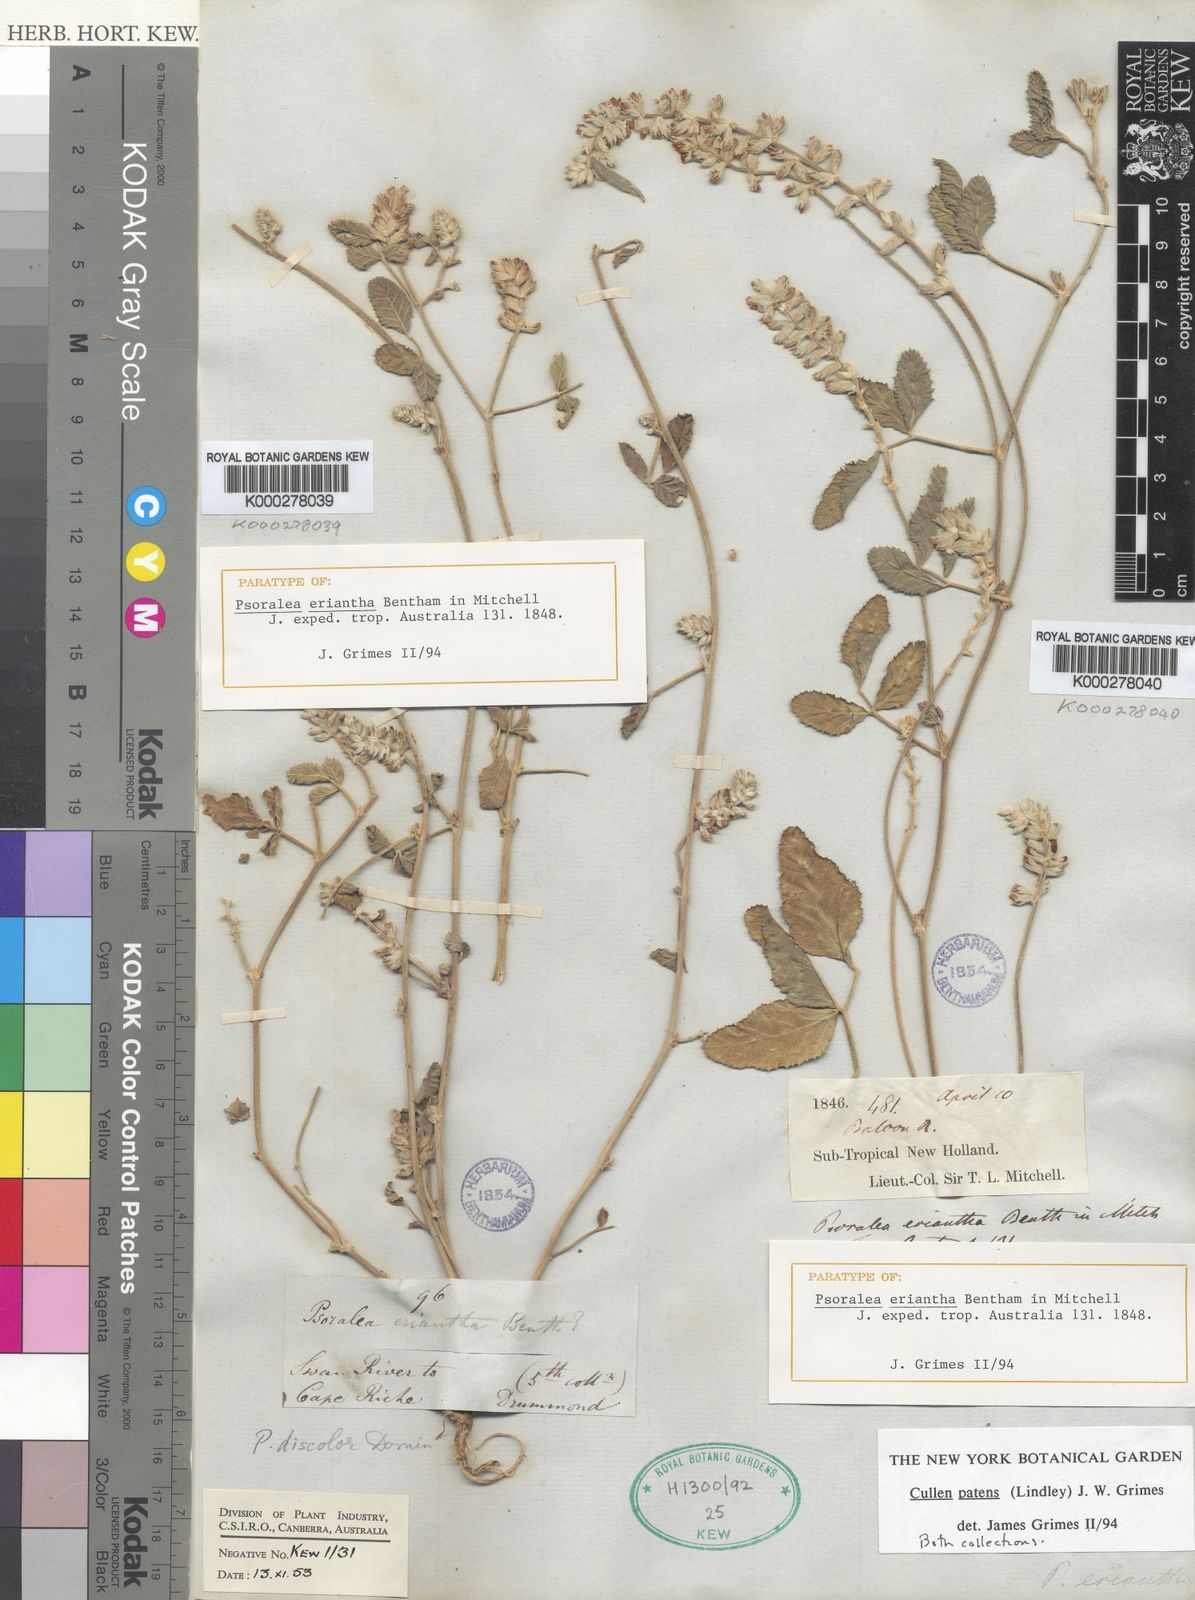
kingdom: Plantae
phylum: Tracheophyta
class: Magnoliopsida
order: Fabales
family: Fabaceae
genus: Cullen
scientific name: Cullen patens
